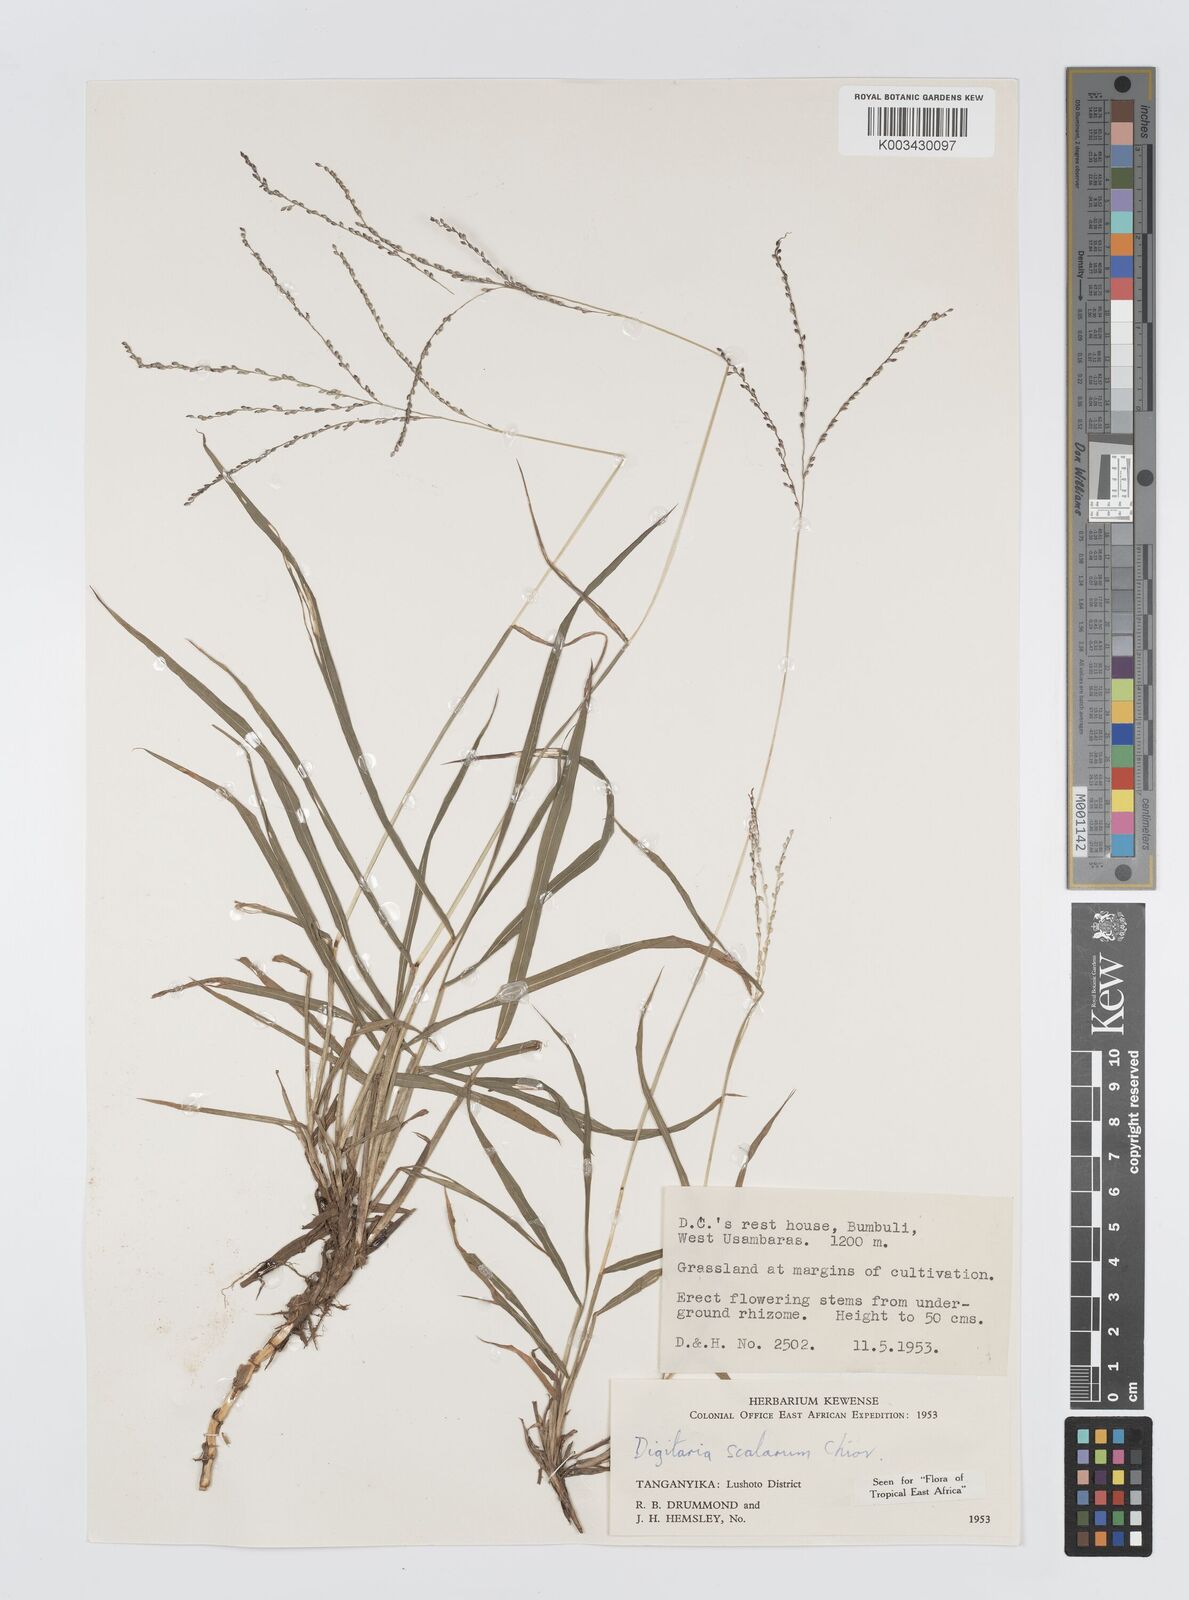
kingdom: Plantae
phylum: Tracheophyta
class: Liliopsida
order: Poales
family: Poaceae
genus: Digitaria
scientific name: Digitaria abyssinica
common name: African couchgrass
